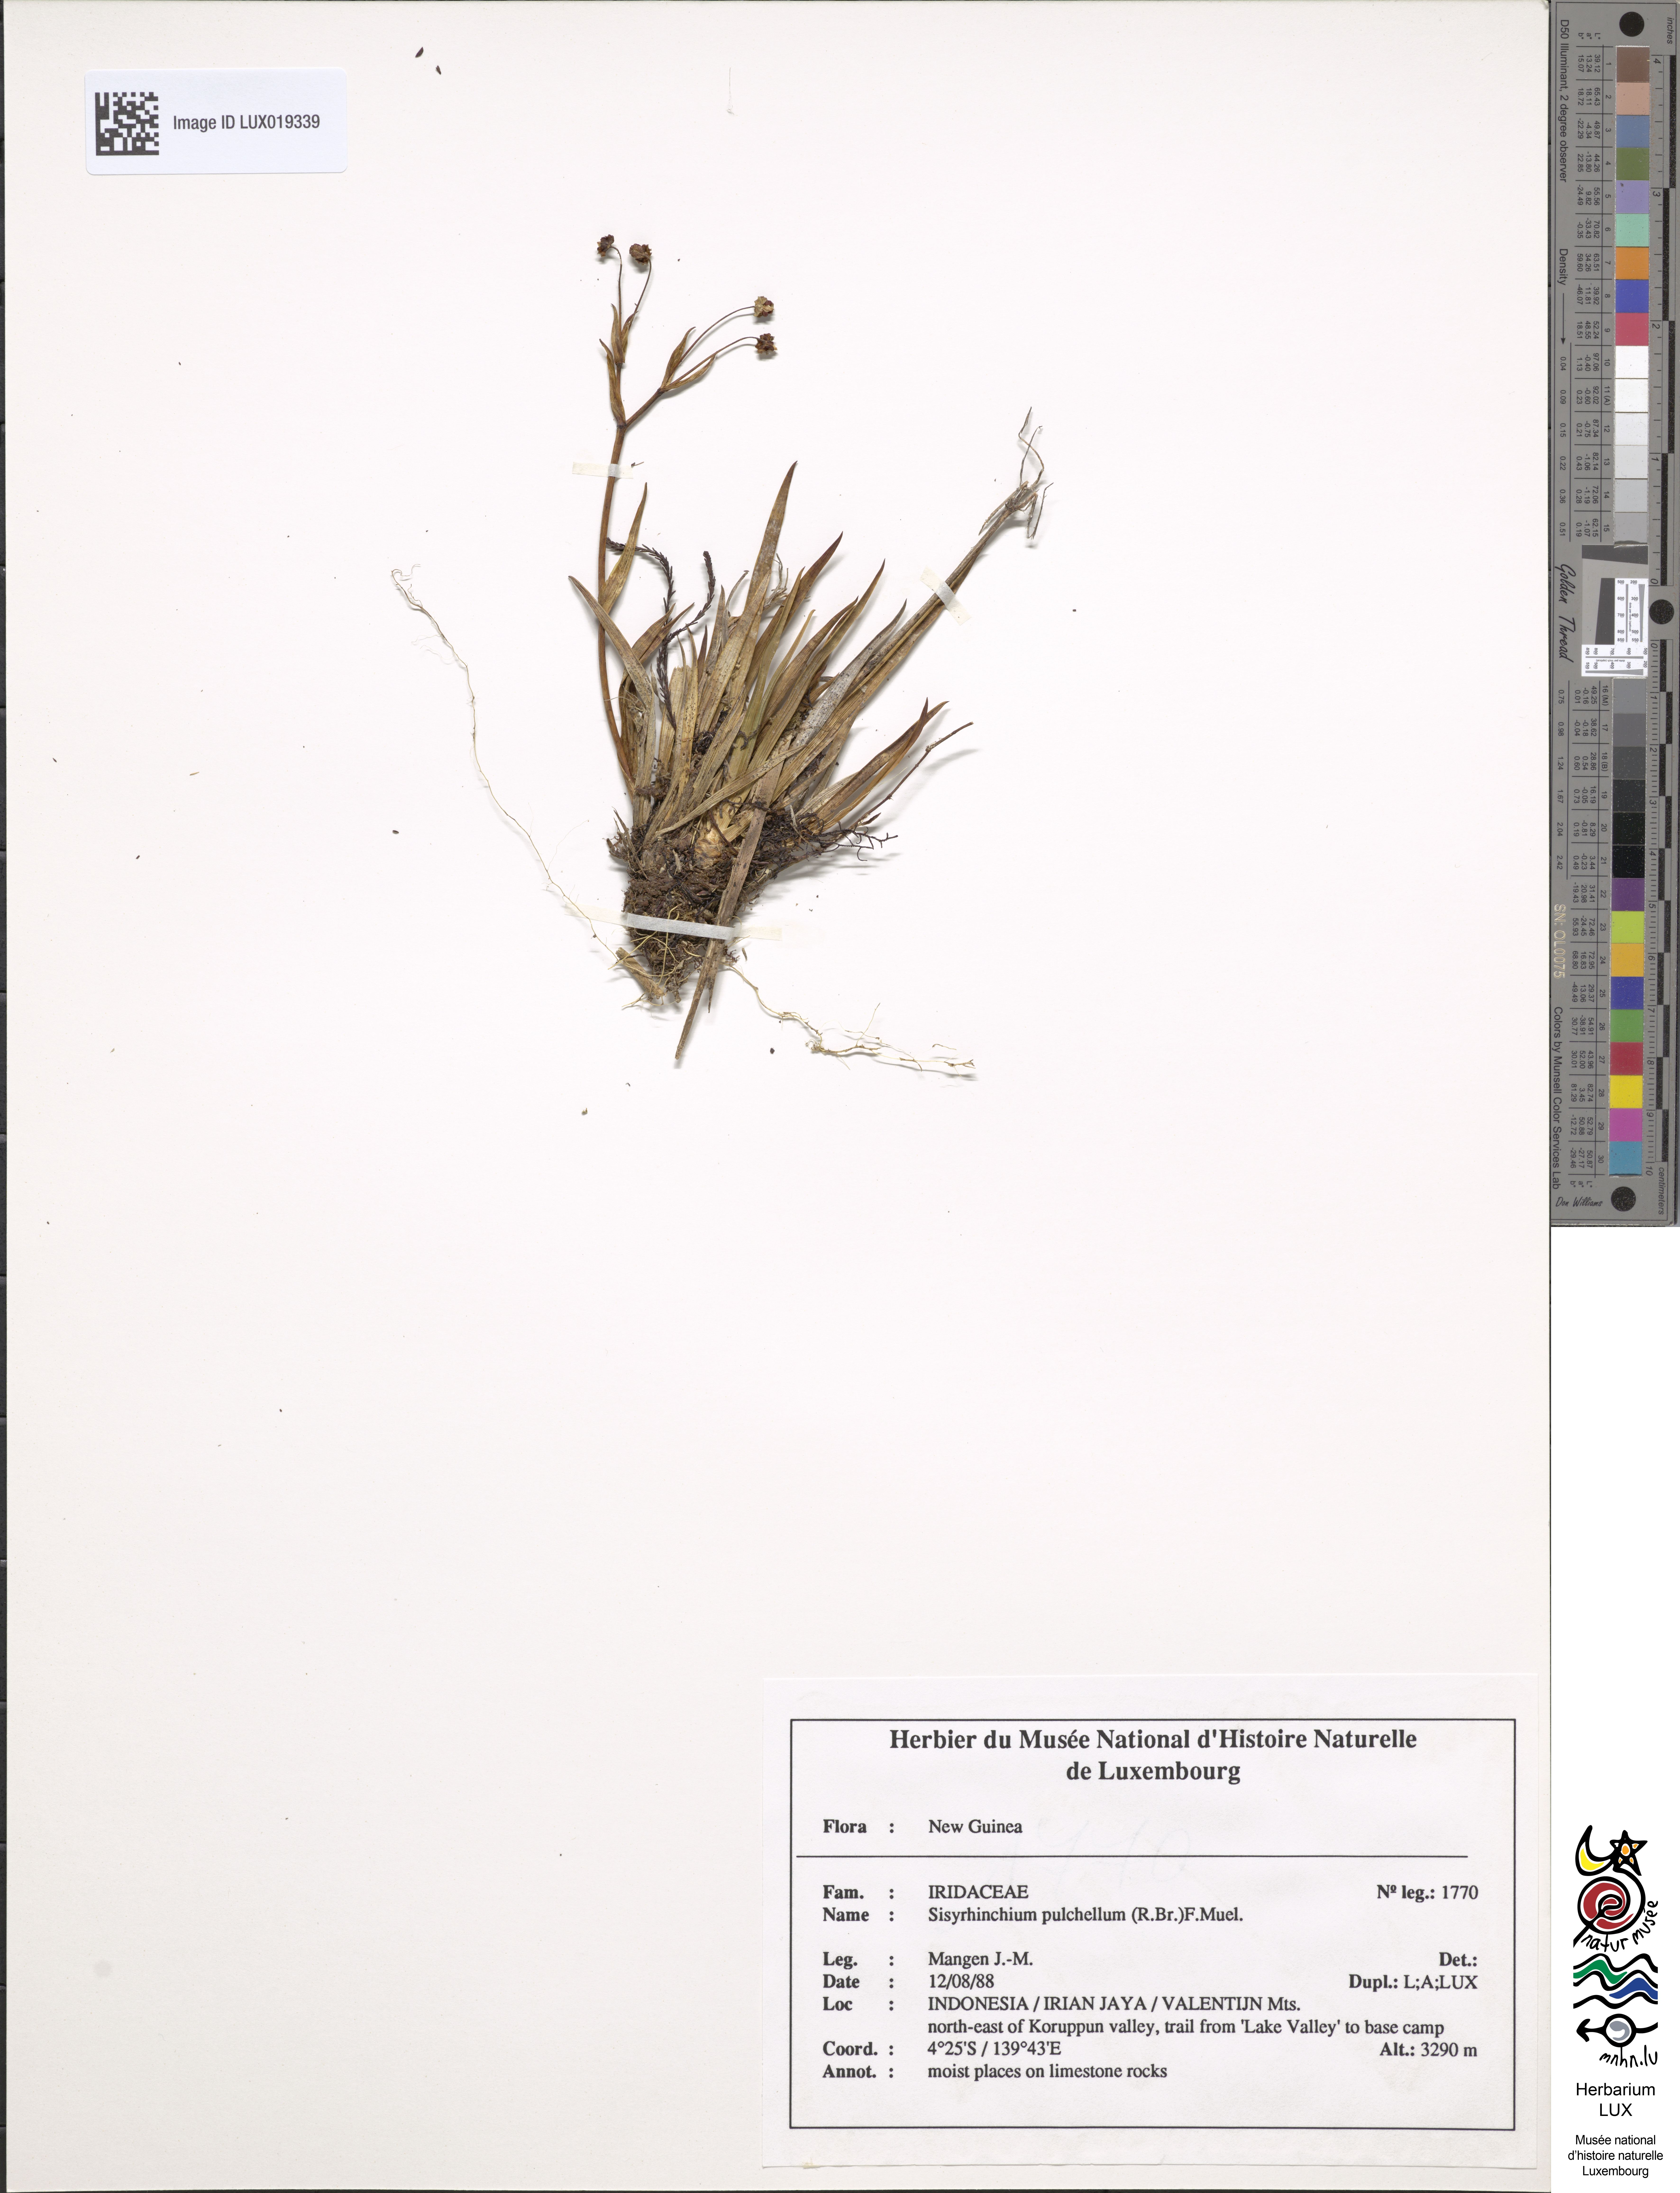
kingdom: Plantae
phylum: Tracheophyta
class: Liliopsida
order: Asparagales
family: Iridaceae
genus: Sisyrenchium
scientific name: Sisyrenchium
